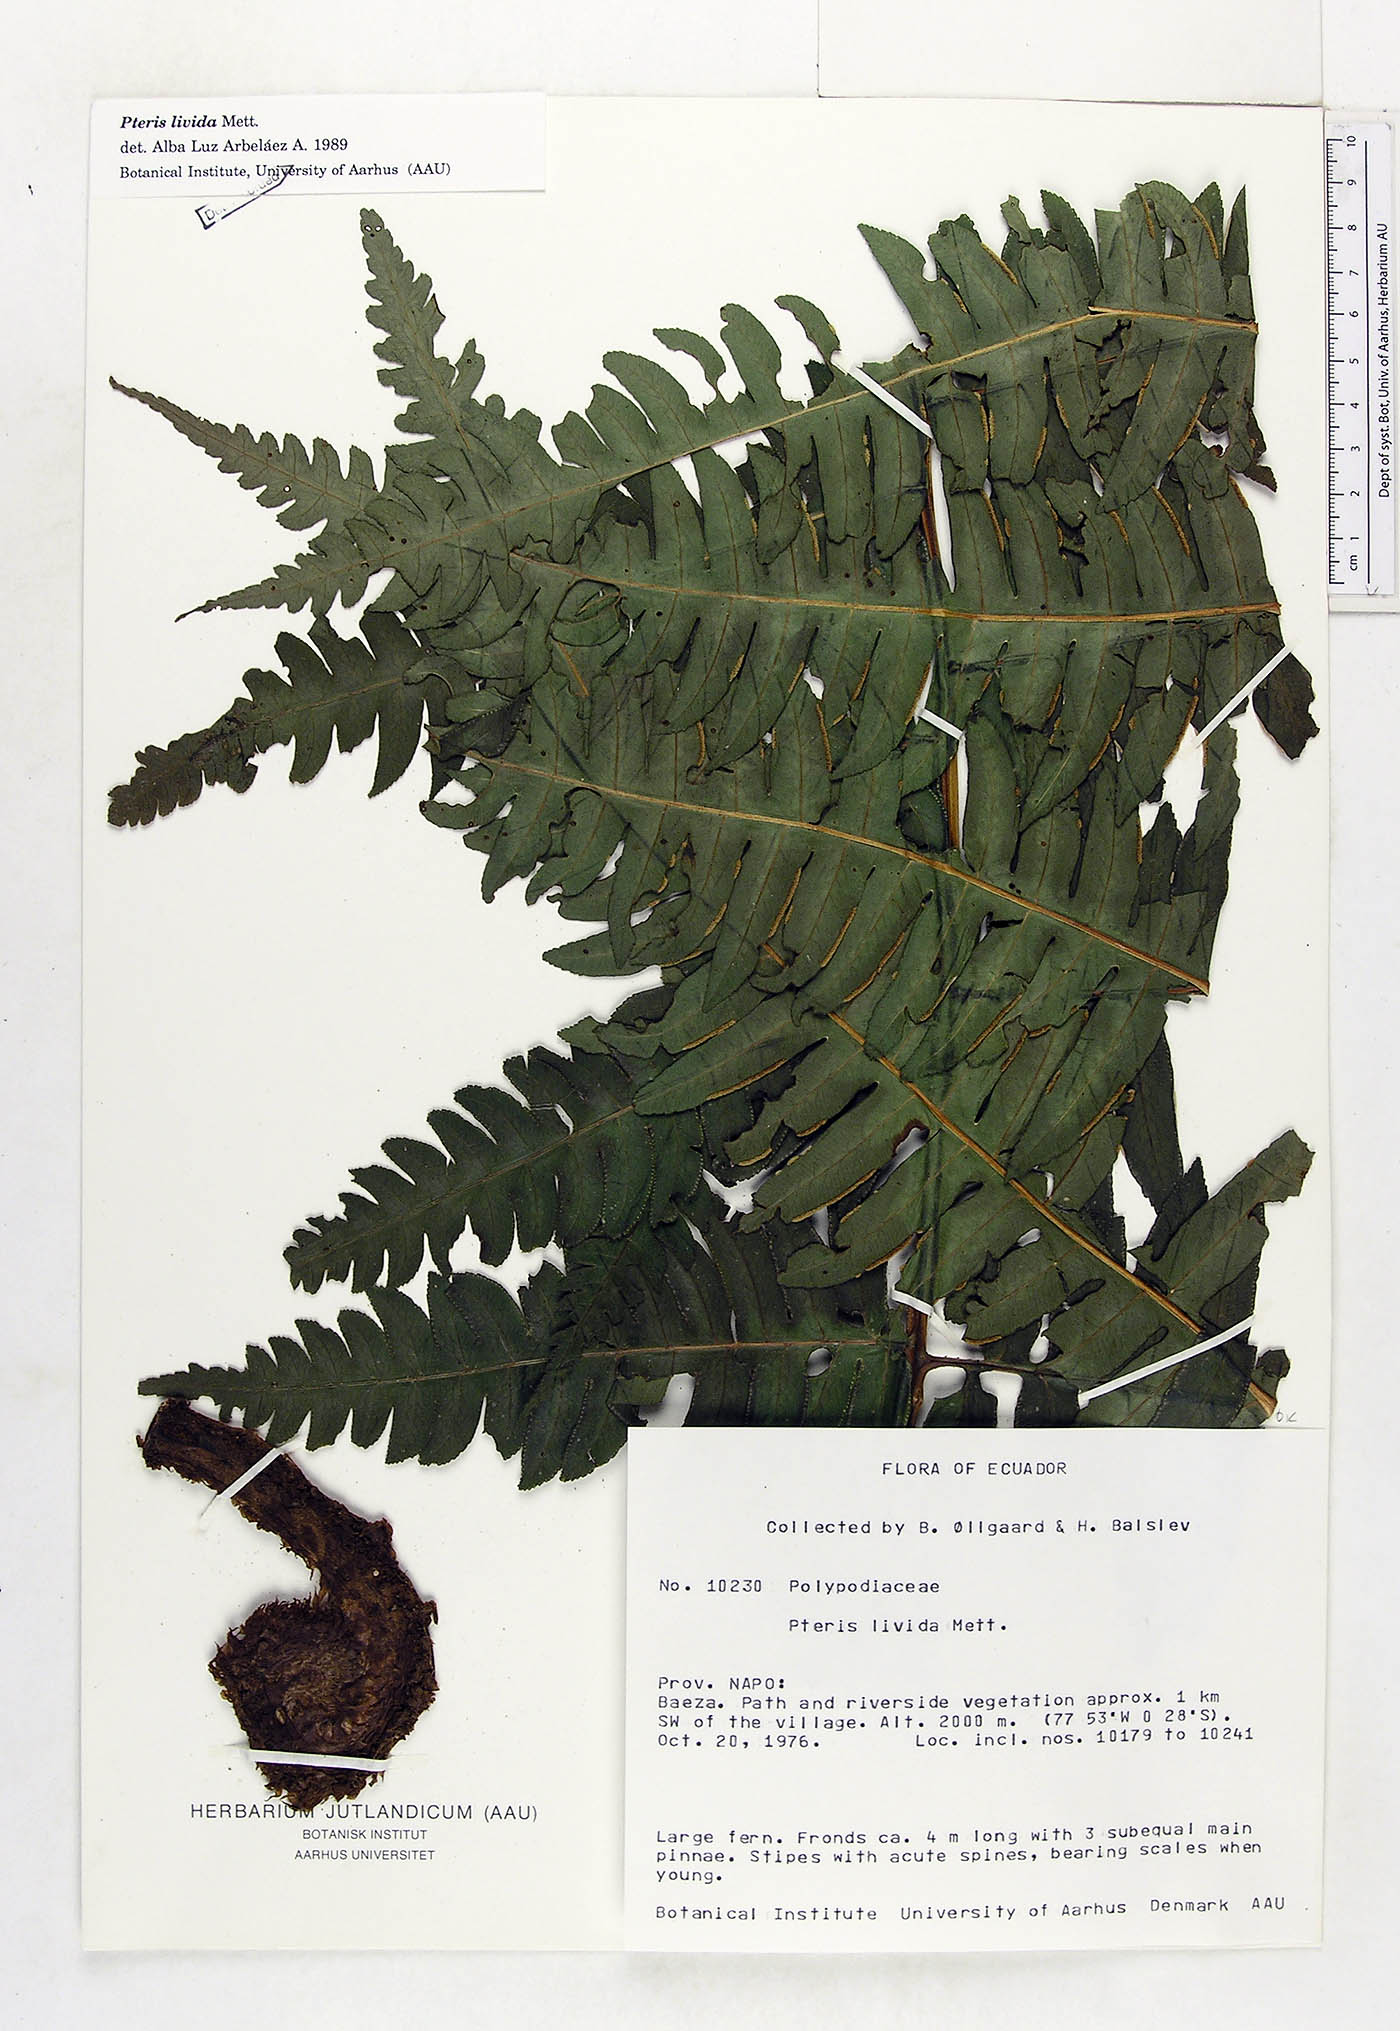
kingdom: Plantae
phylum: Tracheophyta
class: Polypodiopsida
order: Polypodiales
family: Pteridaceae
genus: Pteris
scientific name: Pteris livida
